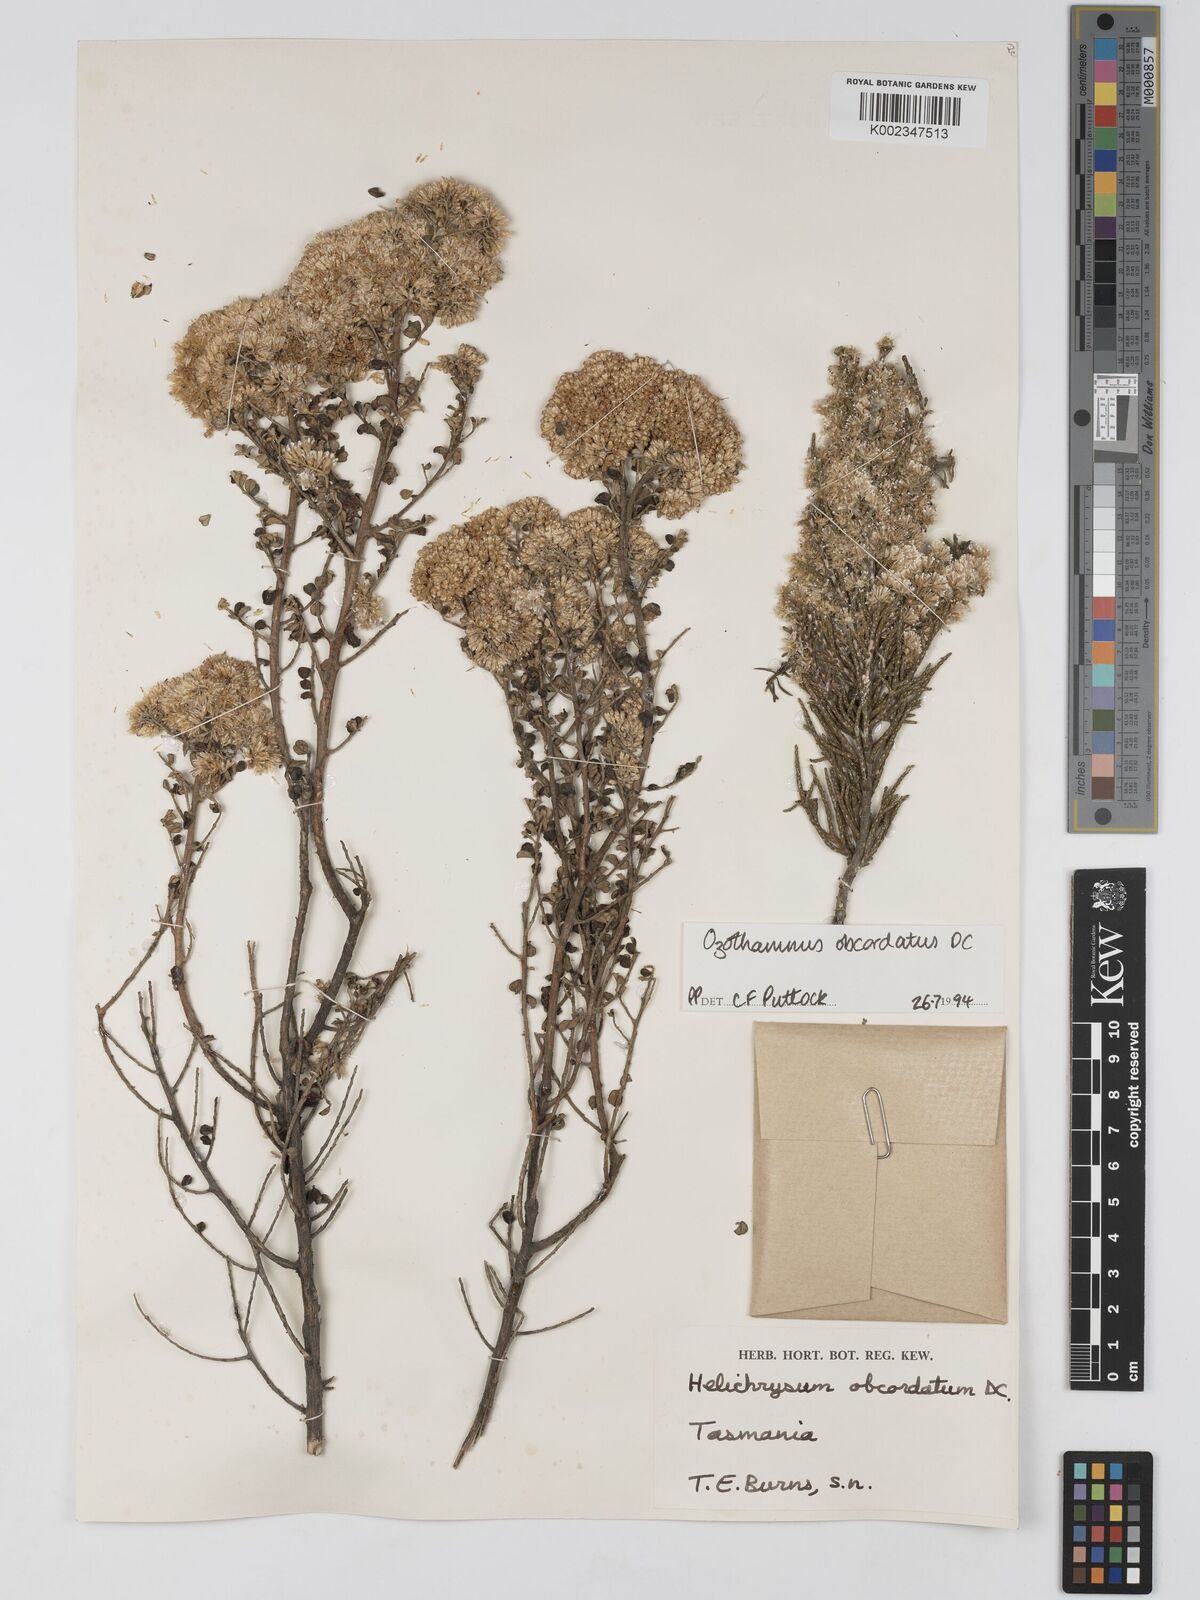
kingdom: Plantae
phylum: Tracheophyta
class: Magnoliopsida
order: Asterales
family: Asteraceae
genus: Ozothamnus
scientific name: Ozothamnus
